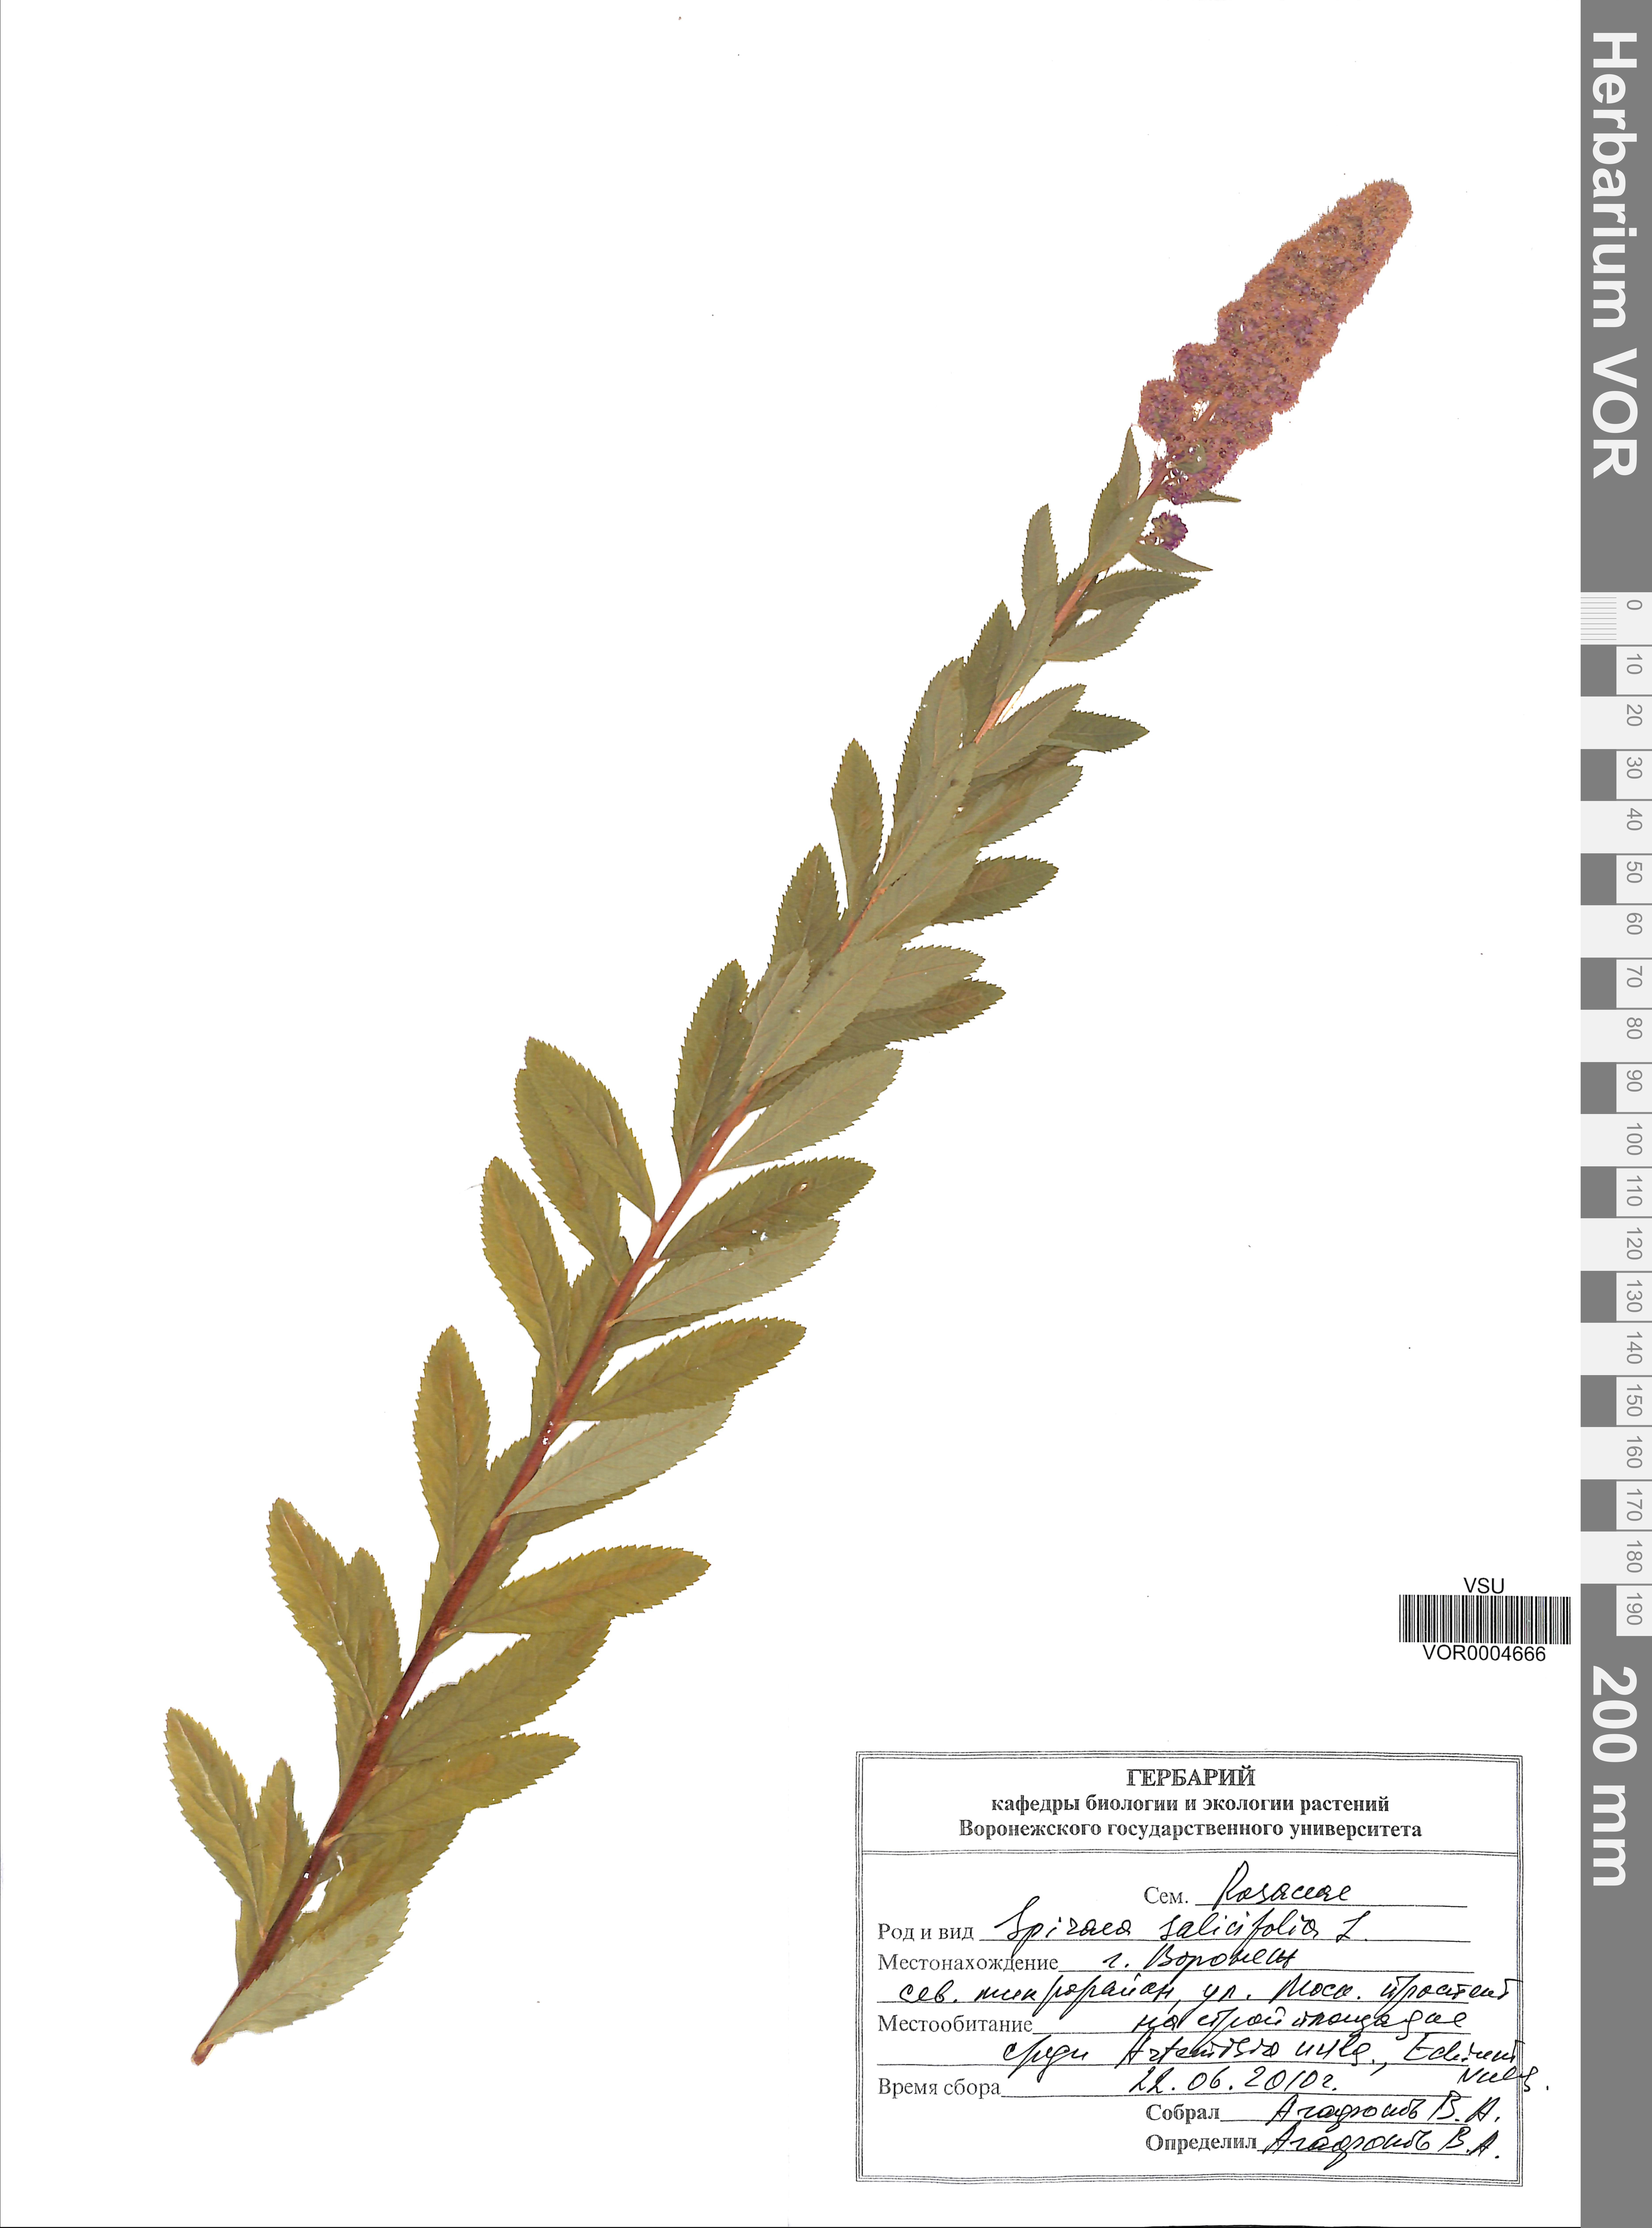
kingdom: Plantae
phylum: Tracheophyta
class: Magnoliopsida
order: Rosales
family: Rosaceae
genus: Spiraea
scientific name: Spiraea salicifolia
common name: Bridewort
